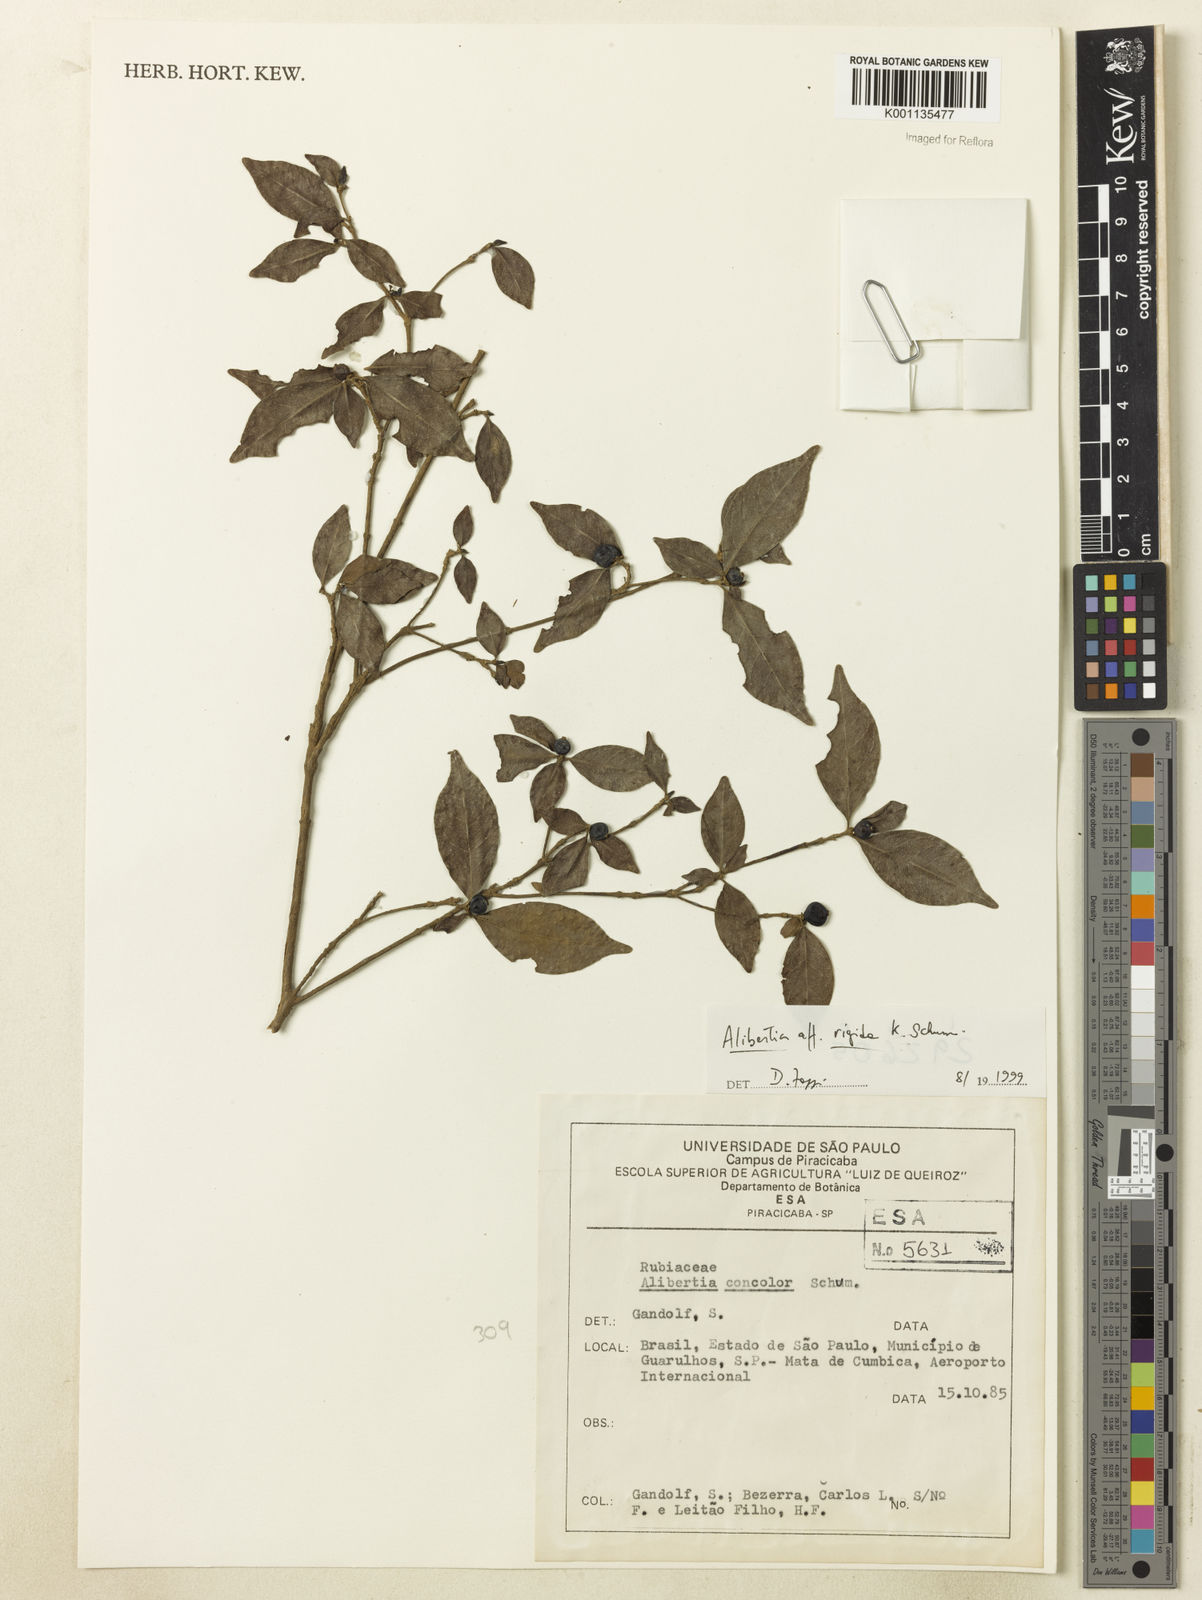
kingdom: Plantae
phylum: Tracheophyta
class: Magnoliopsida
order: Gentianales
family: Rubiaceae
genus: Cordiera
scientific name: Cordiera rigida
